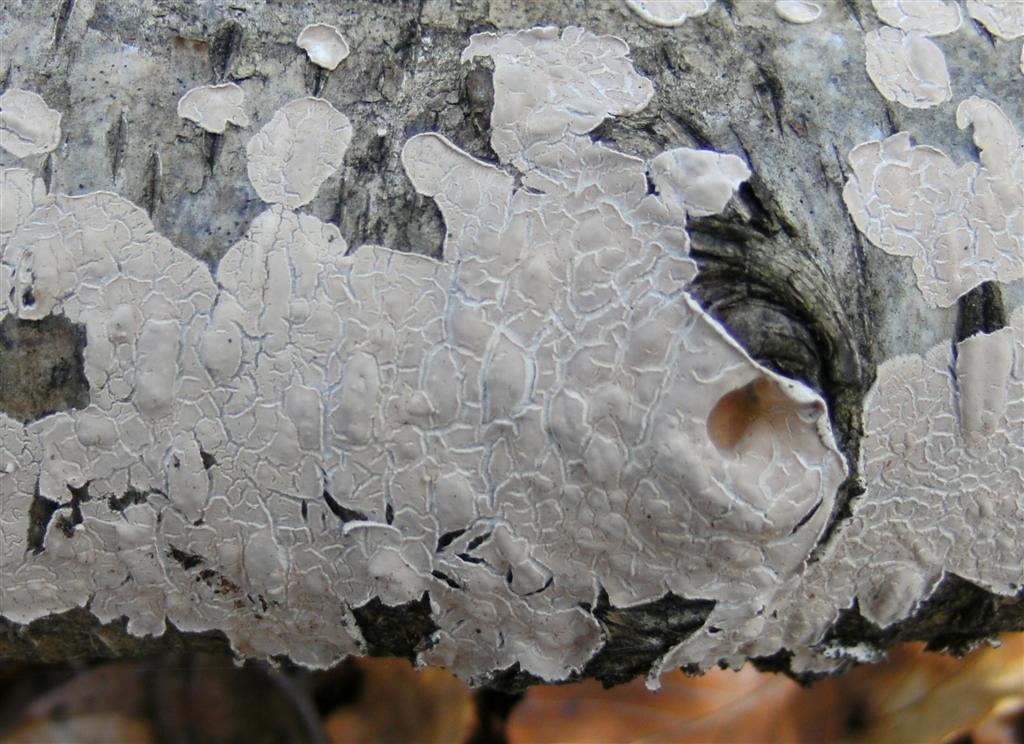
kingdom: Fungi
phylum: Basidiomycota
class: Agaricomycetes
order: Agaricales
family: Physalacriaceae
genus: Cylindrobasidium
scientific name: Cylindrobasidium evolvens
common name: sprækkehinde
